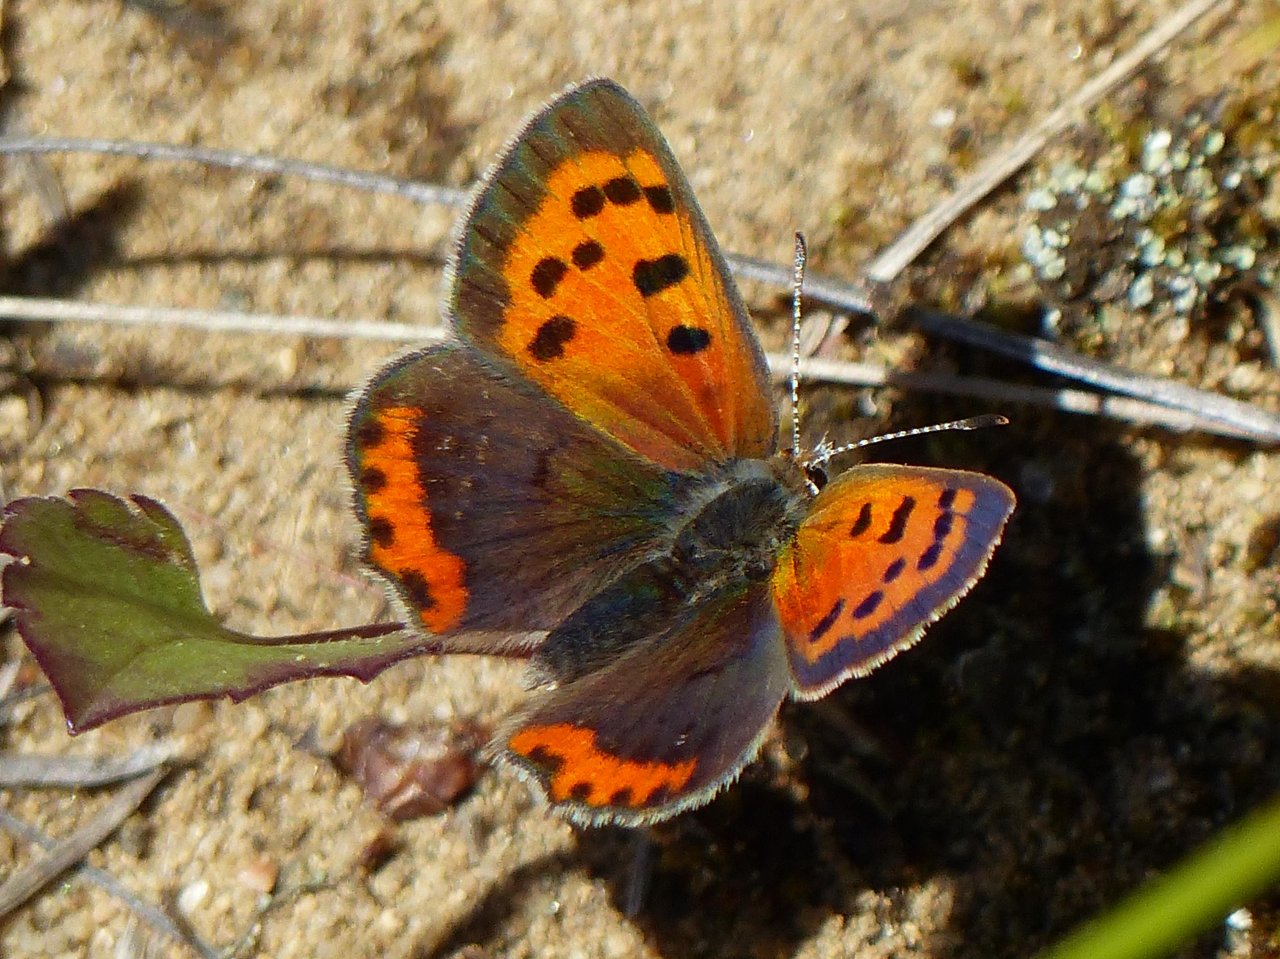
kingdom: Animalia
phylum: Arthropoda
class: Insecta
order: Lepidoptera
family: Lycaenidae
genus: Lycaena
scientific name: Lycaena phlaeas
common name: American Copper
